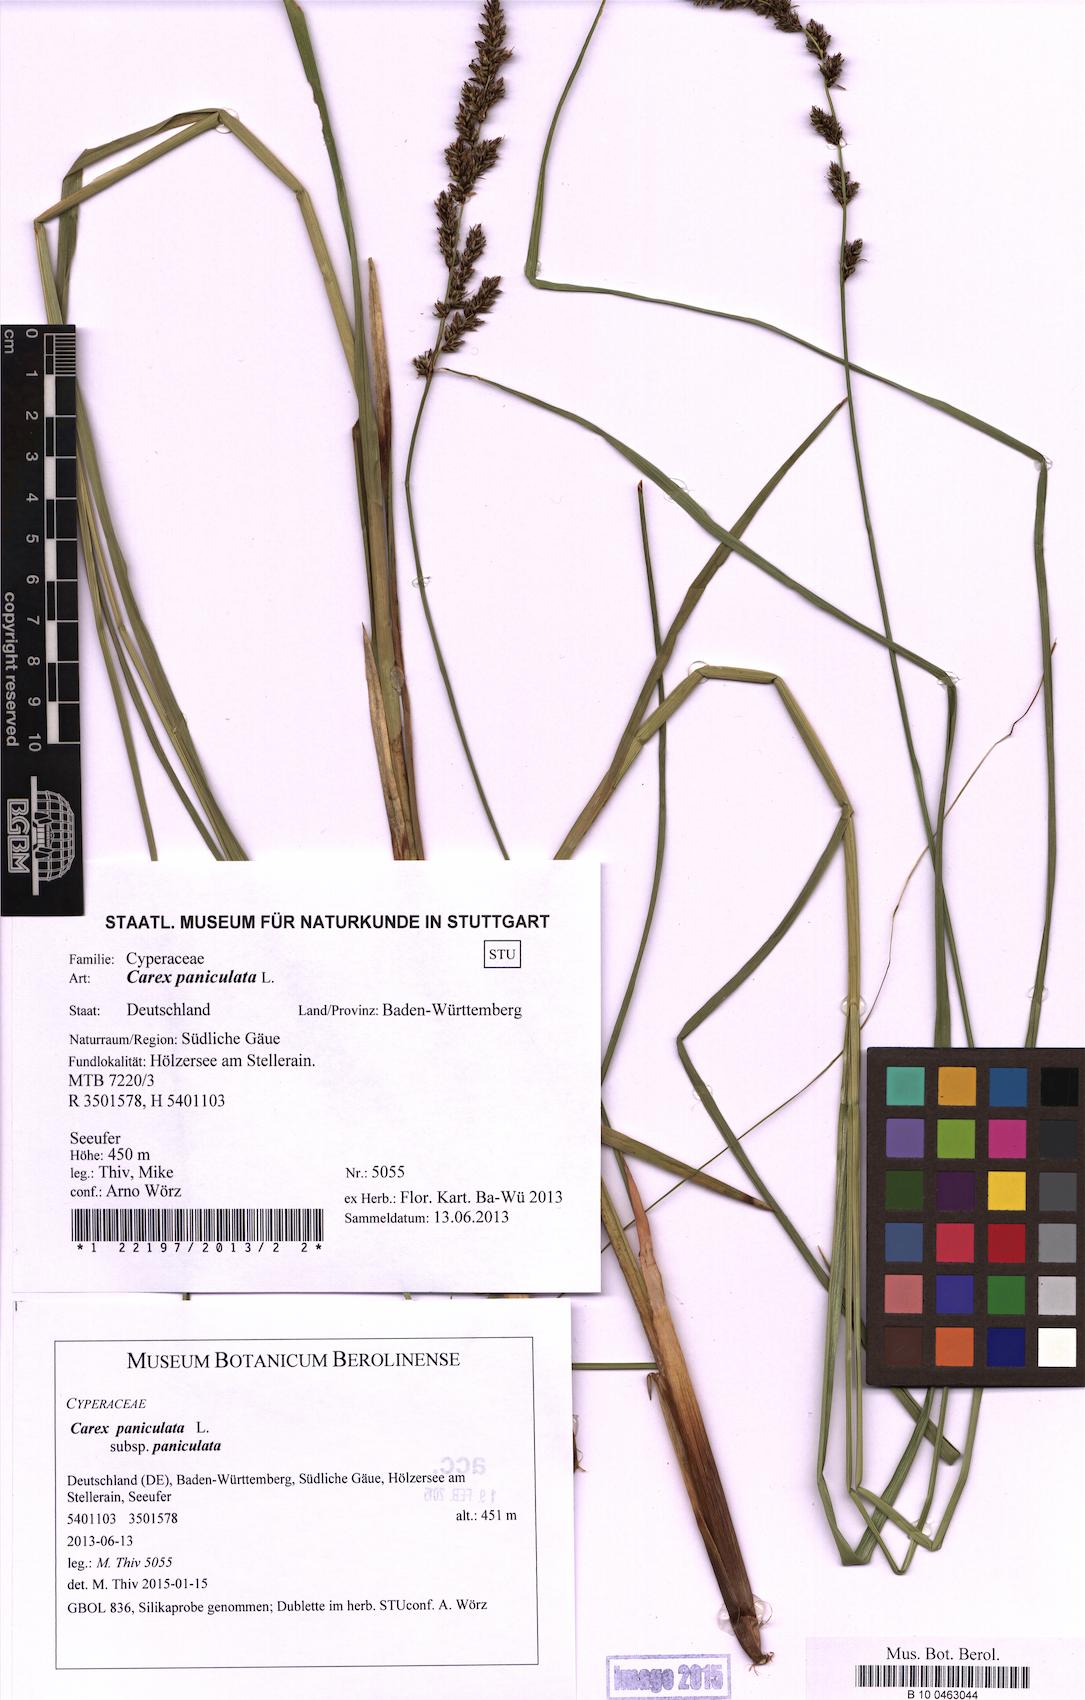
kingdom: Plantae
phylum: Tracheophyta
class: Liliopsida
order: Poales
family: Cyperaceae
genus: Carex
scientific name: Carex paniculata
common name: Greater tussock-sedge
